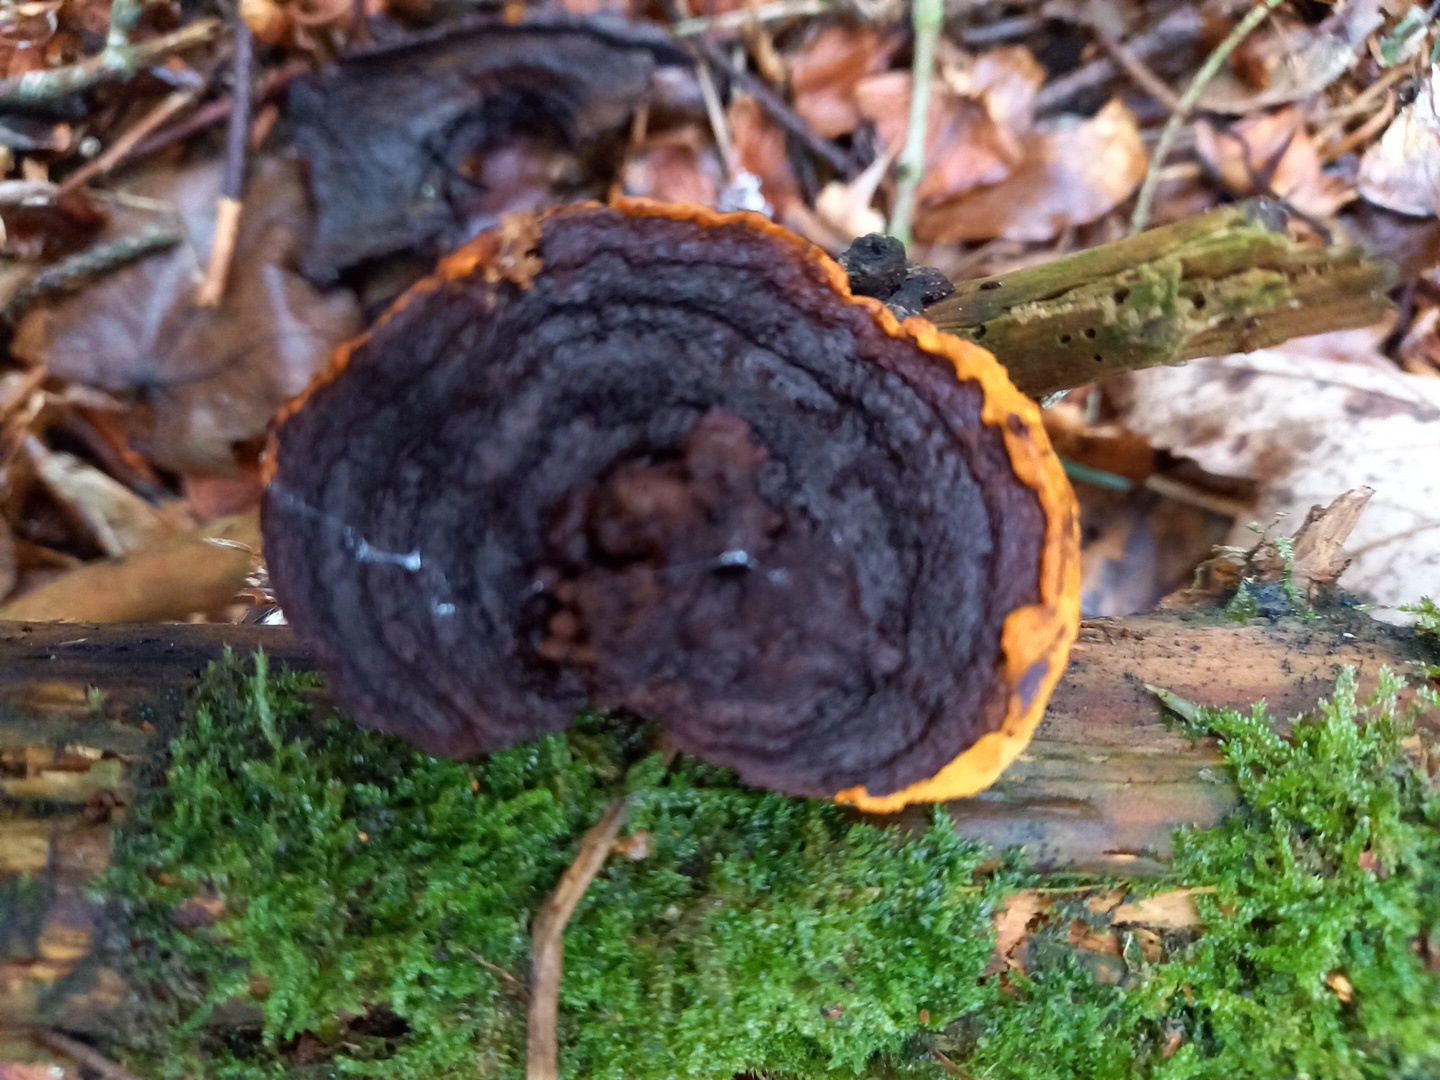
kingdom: Fungi
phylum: Basidiomycota
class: Agaricomycetes
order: Gloeophyllales
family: Gloeophyllaceae
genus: Gloeophyllum
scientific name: Gloeophyllum sepiarium
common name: fyrre-korkhat
